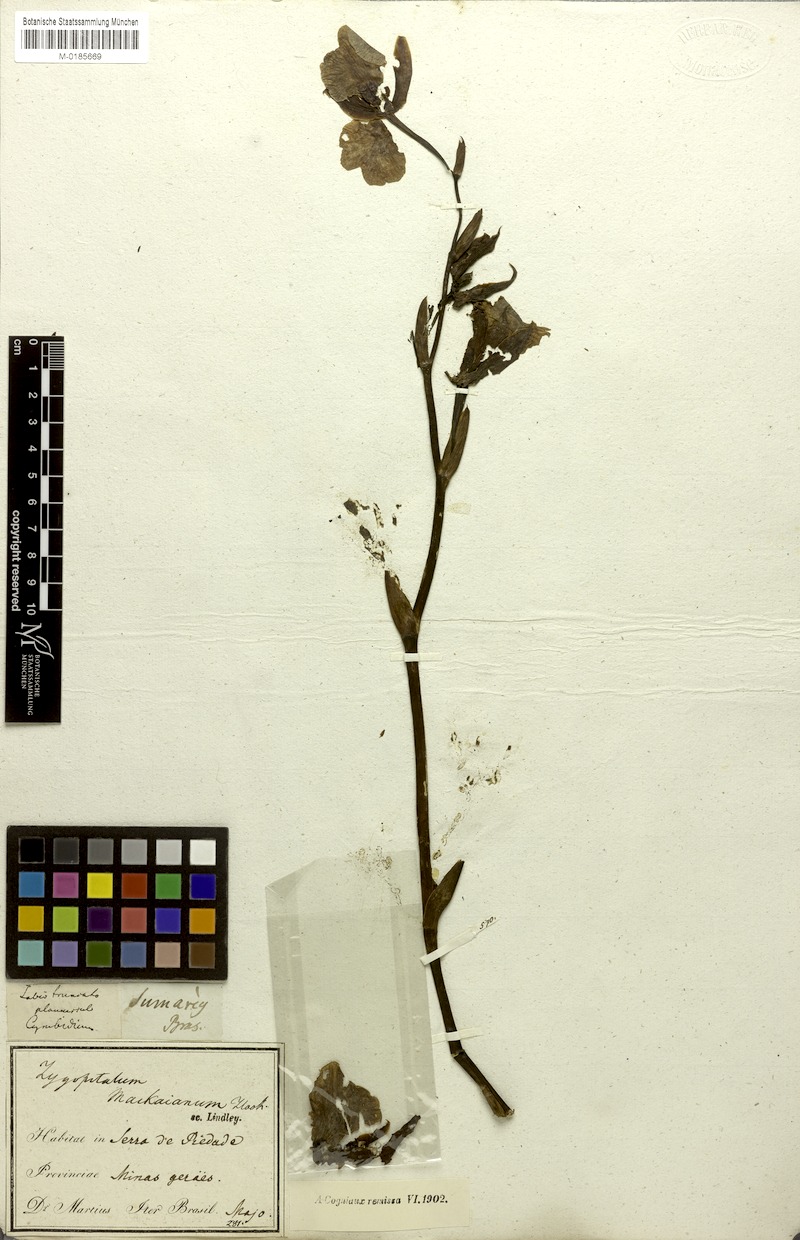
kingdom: Plantae
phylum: Tracheophyta
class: Liliopsida
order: Asparagales
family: Orchidaceae
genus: Zygopetalum
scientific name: Zygopetalum maculatum
